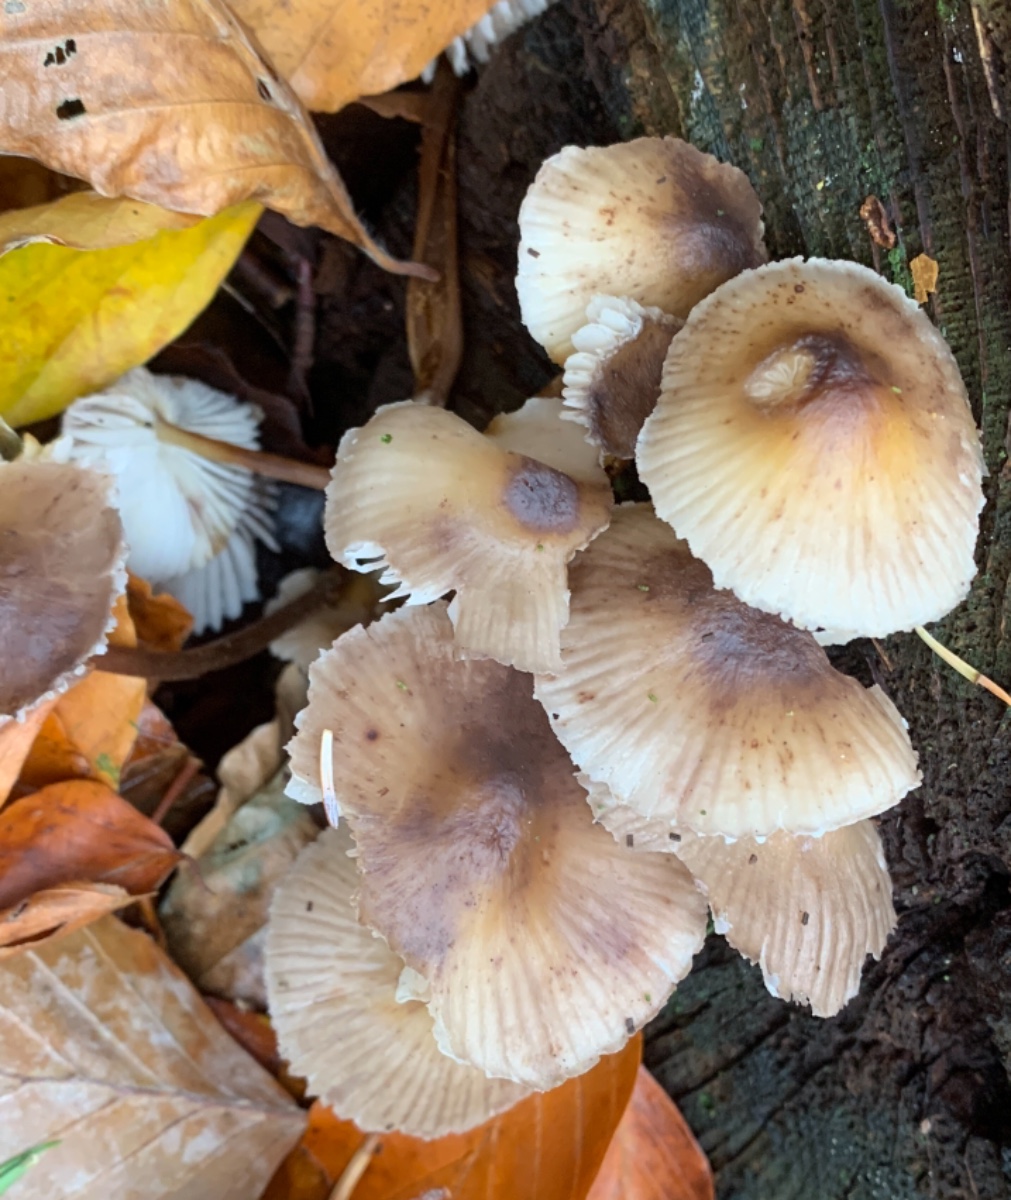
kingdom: Fungi
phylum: Basidiomycota
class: Agaricomycetes
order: Agaricales
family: Mycenaceae
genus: Mycena
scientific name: Mycena inclinata
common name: nikkende huesvamp
